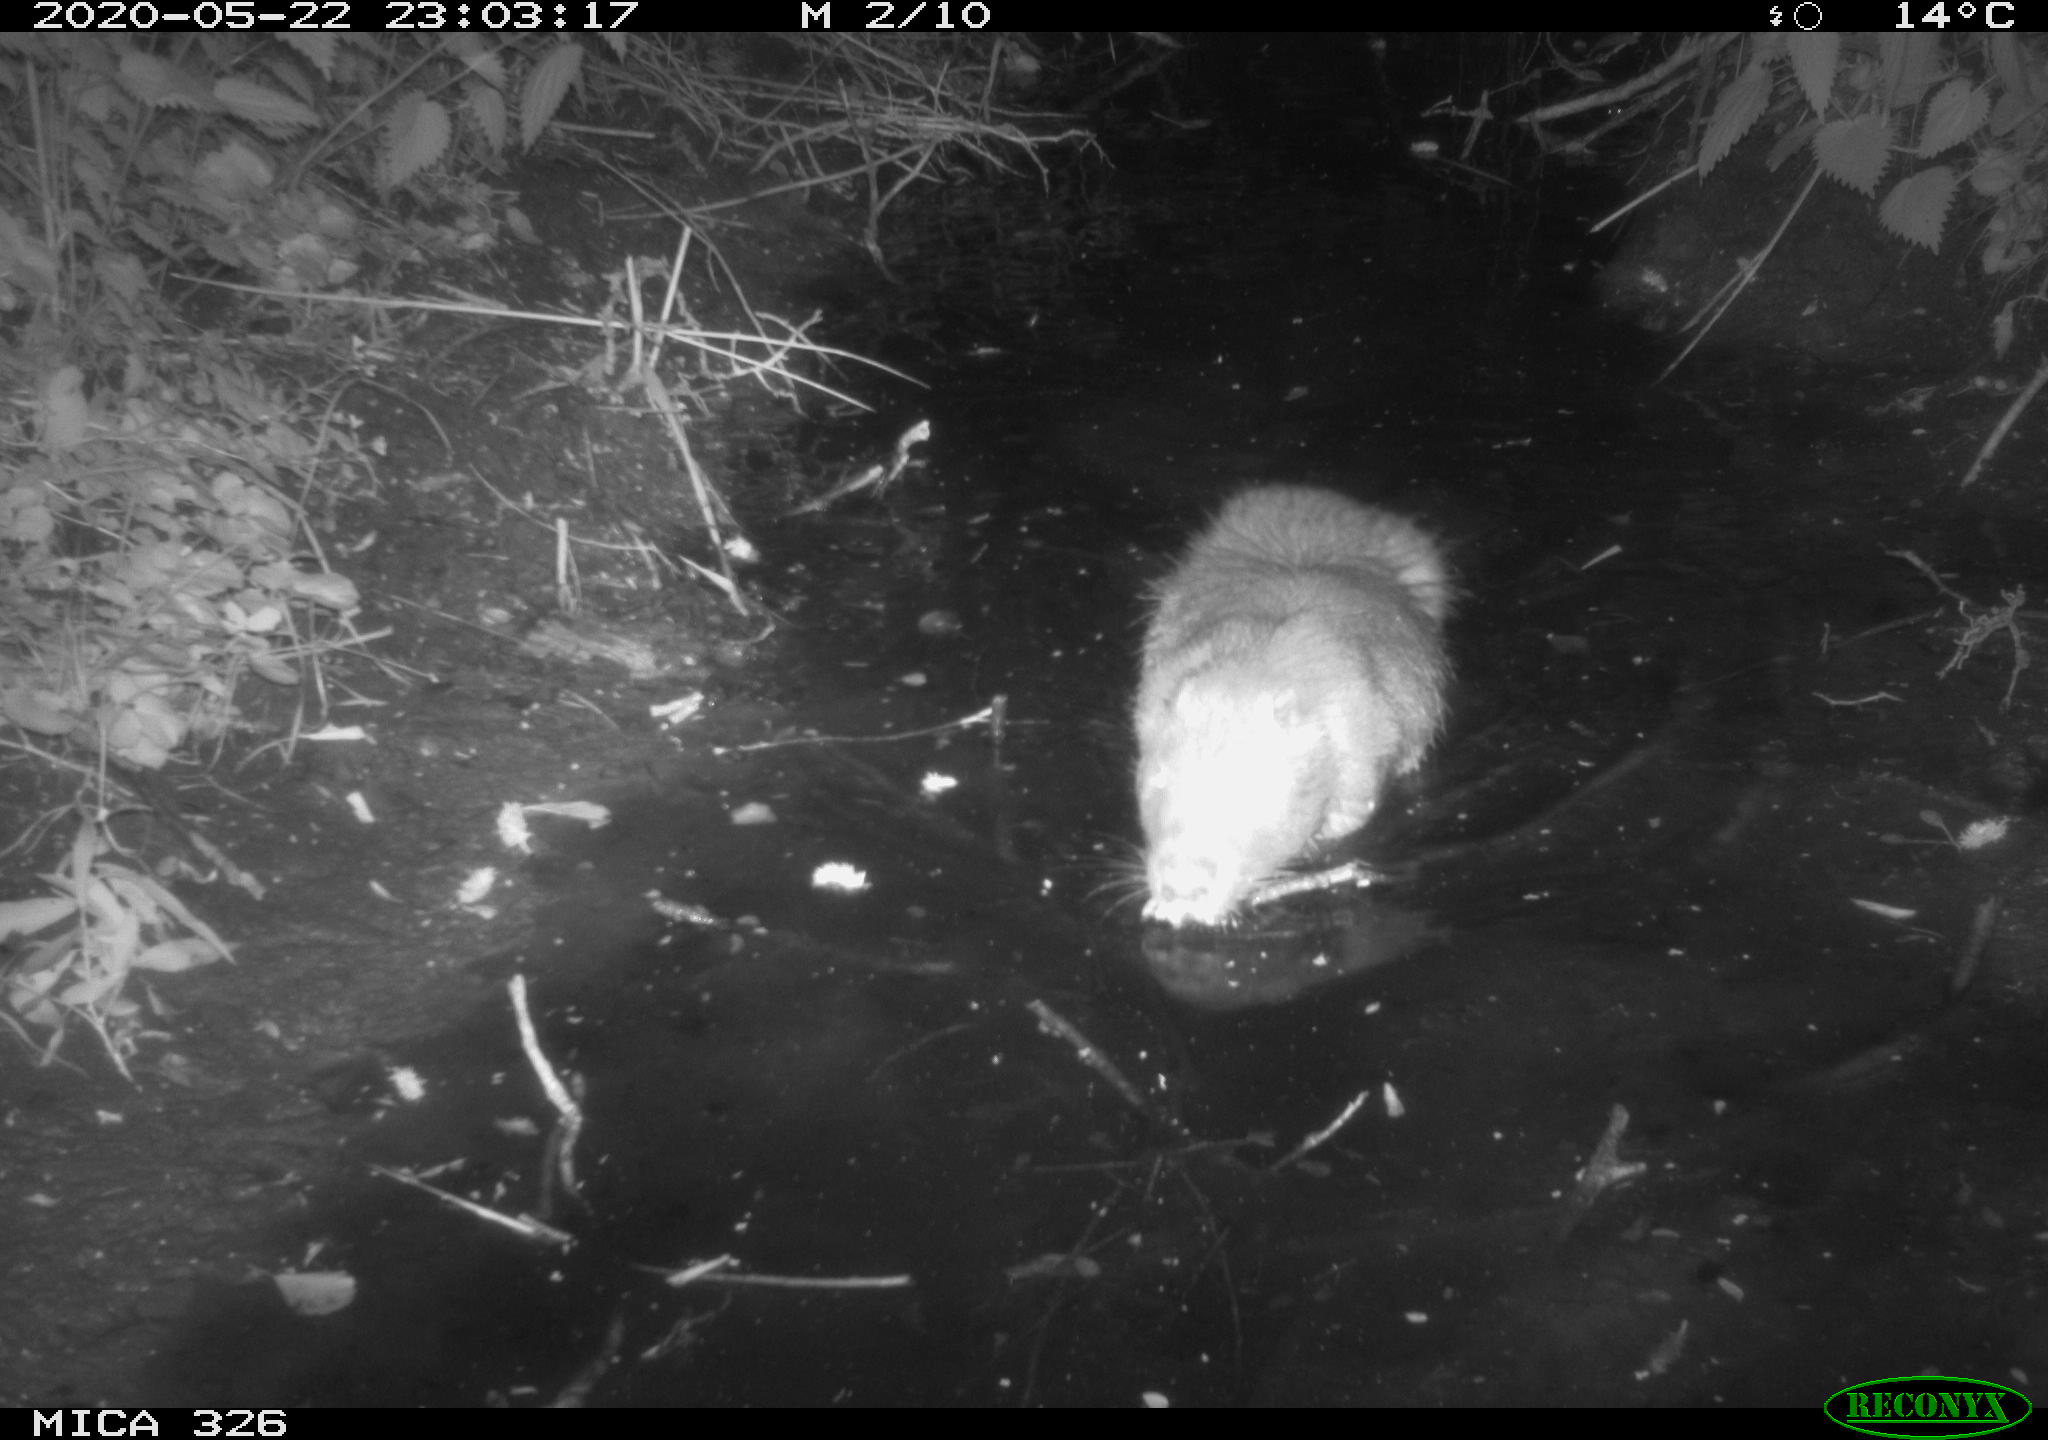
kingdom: Animalia
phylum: Chordata
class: Mammalia
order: Rodentia
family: Myocastoridae
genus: Myocastor
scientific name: Myocastor coypus
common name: Coypu
